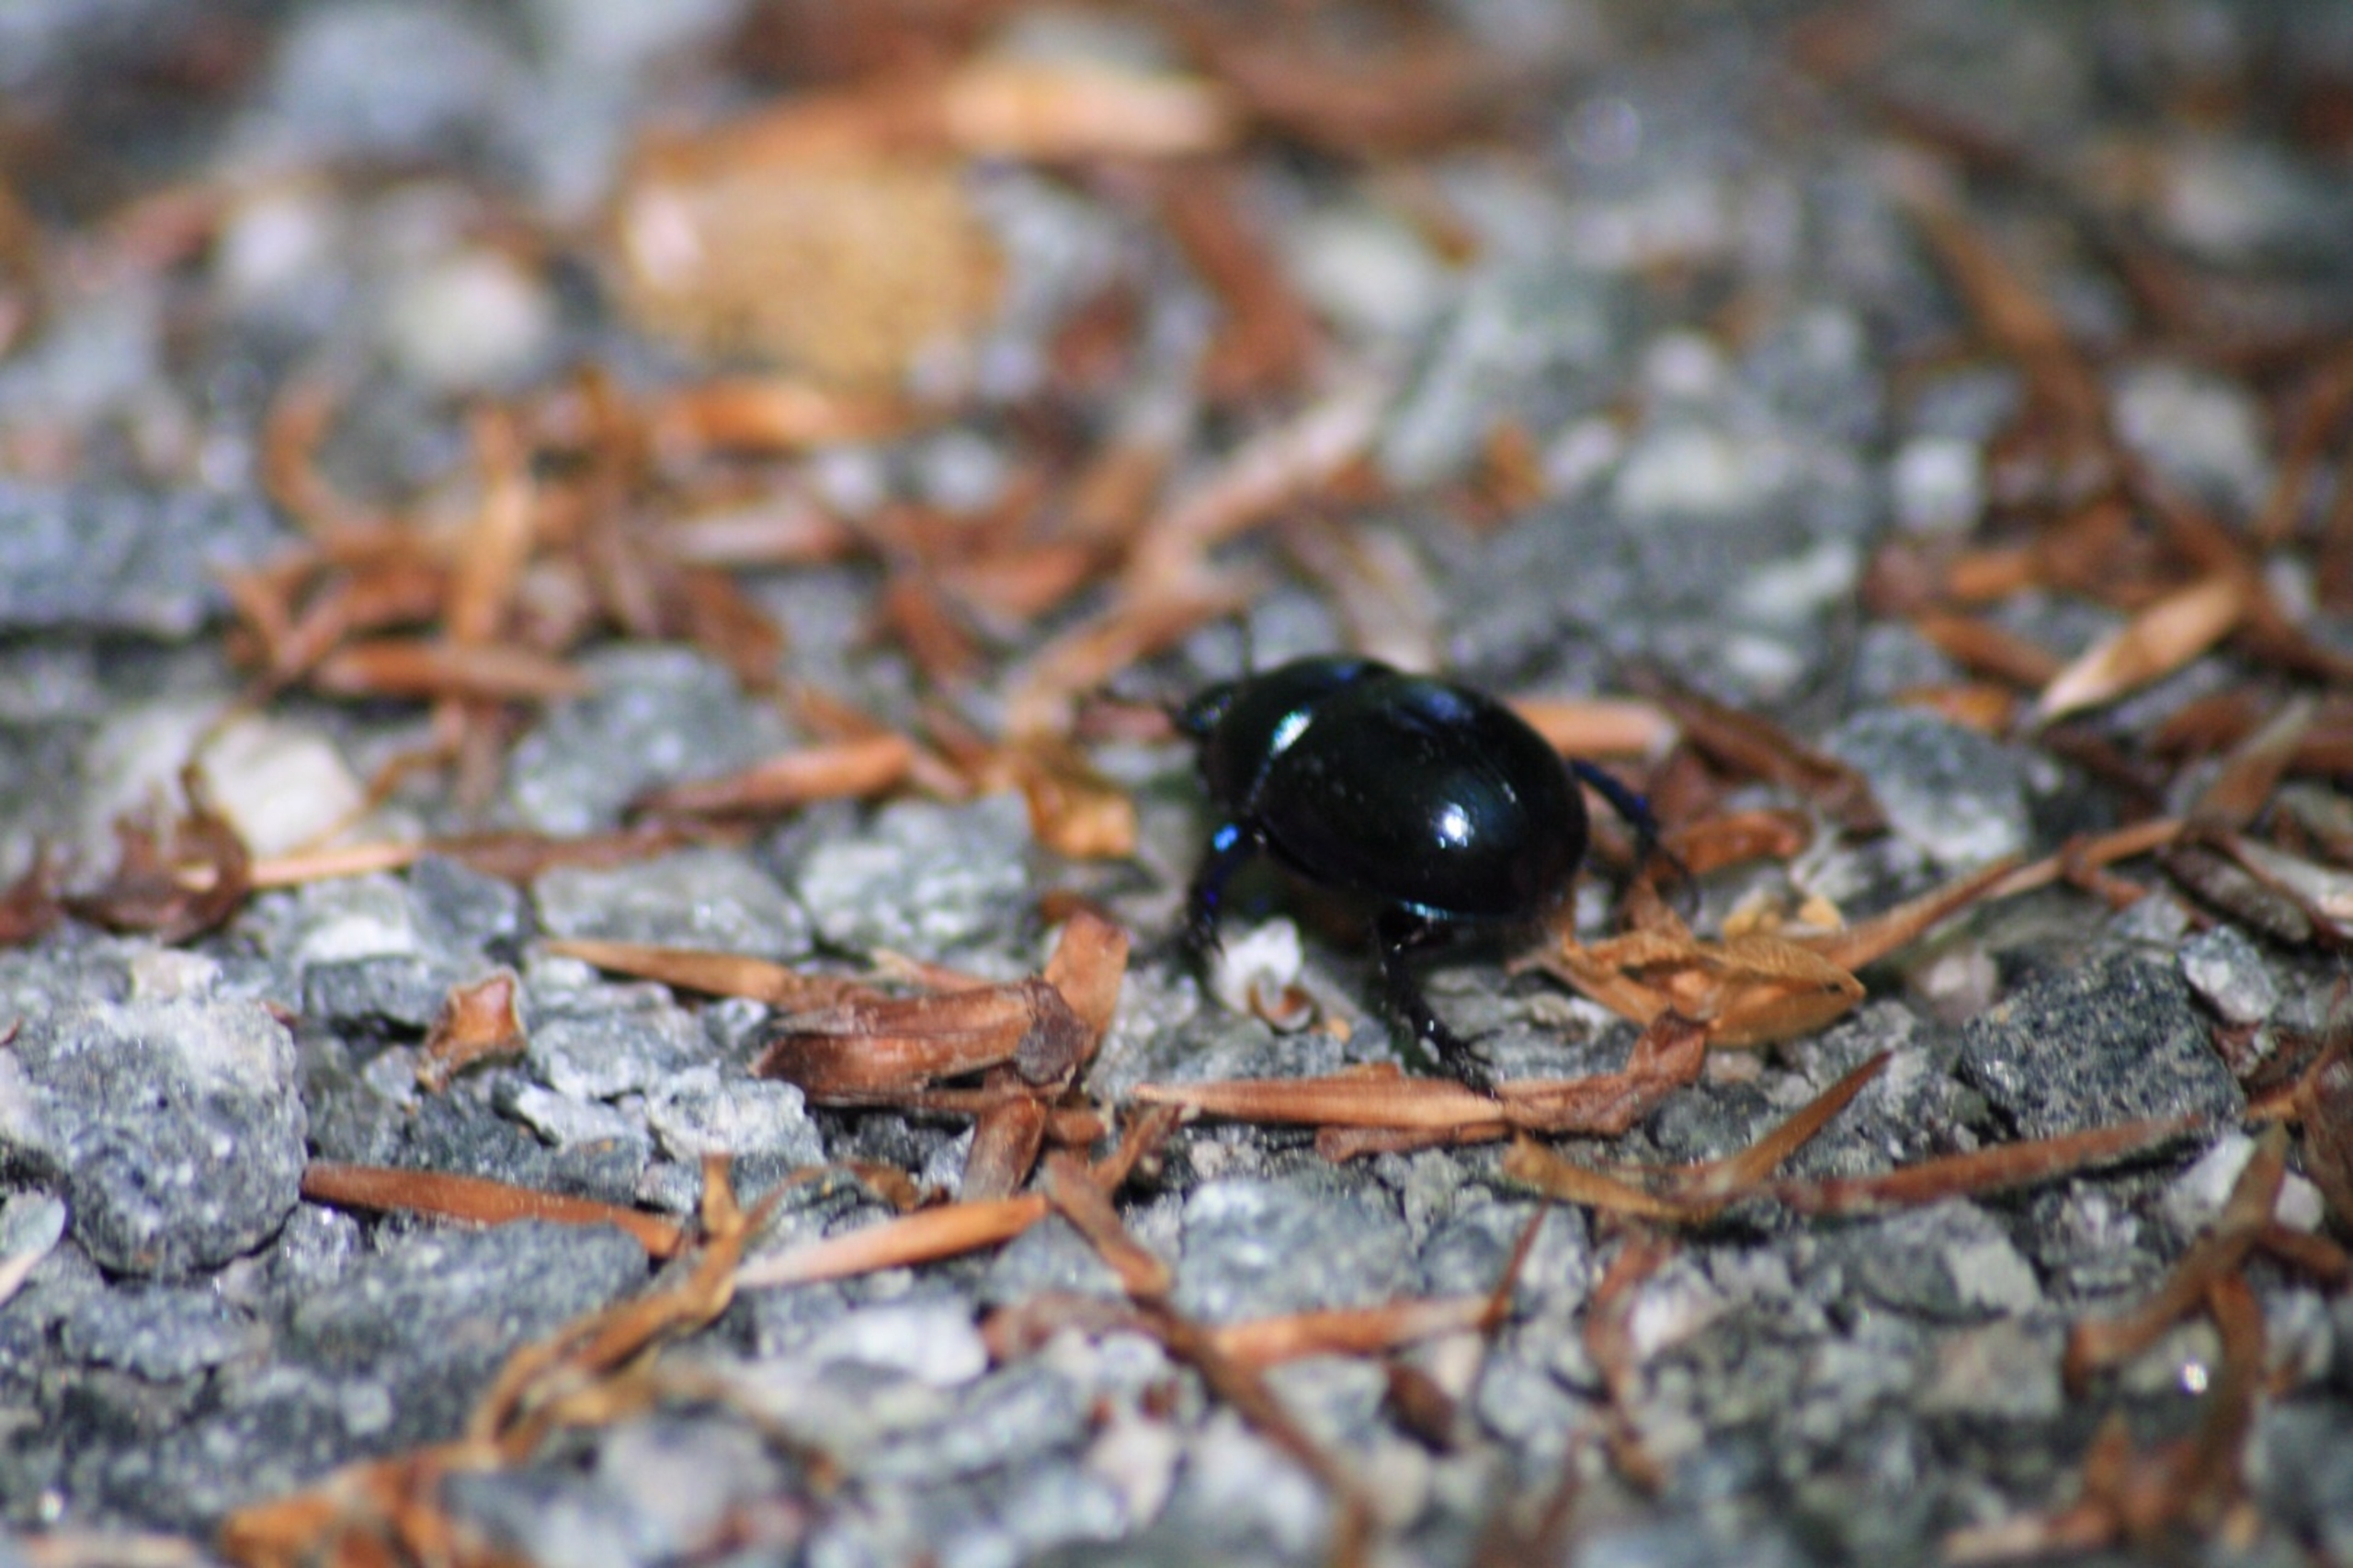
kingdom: Animalia
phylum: Arthropoda
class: Insecta
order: Coleoptera
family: Geotrupidae
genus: Anoplotrupes
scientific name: Anoplotrupes stercorosus
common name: Skovskarnbasse
